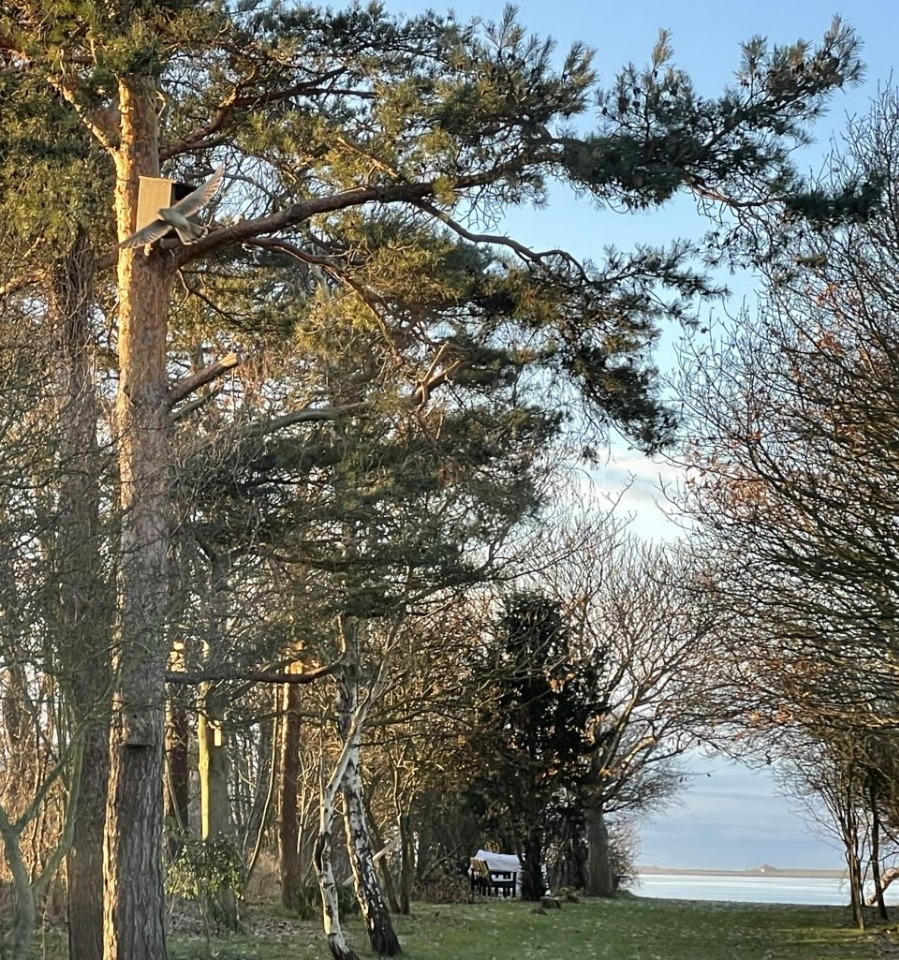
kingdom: Animalia
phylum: Chordata
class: Aves
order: Falconiformes
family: Falconidae
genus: Falco
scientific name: Falco tinnunculus
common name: Tårnfalk
